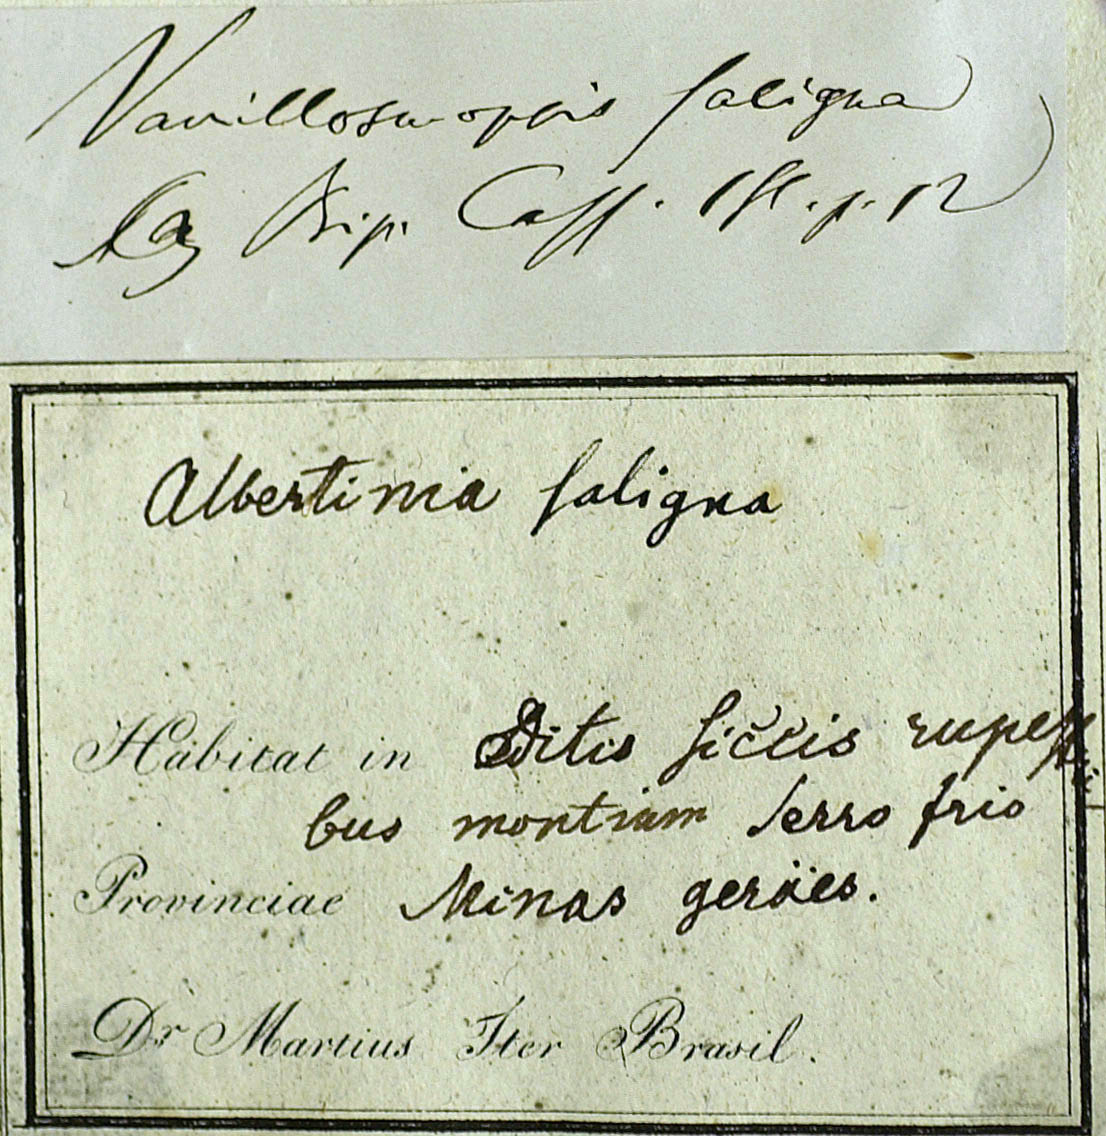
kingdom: Plantae
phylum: Tracheophyta
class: Magnoliopsida
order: Asterales
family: Asteraceae
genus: Eremanthus
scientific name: Eremanthus polycephalus
